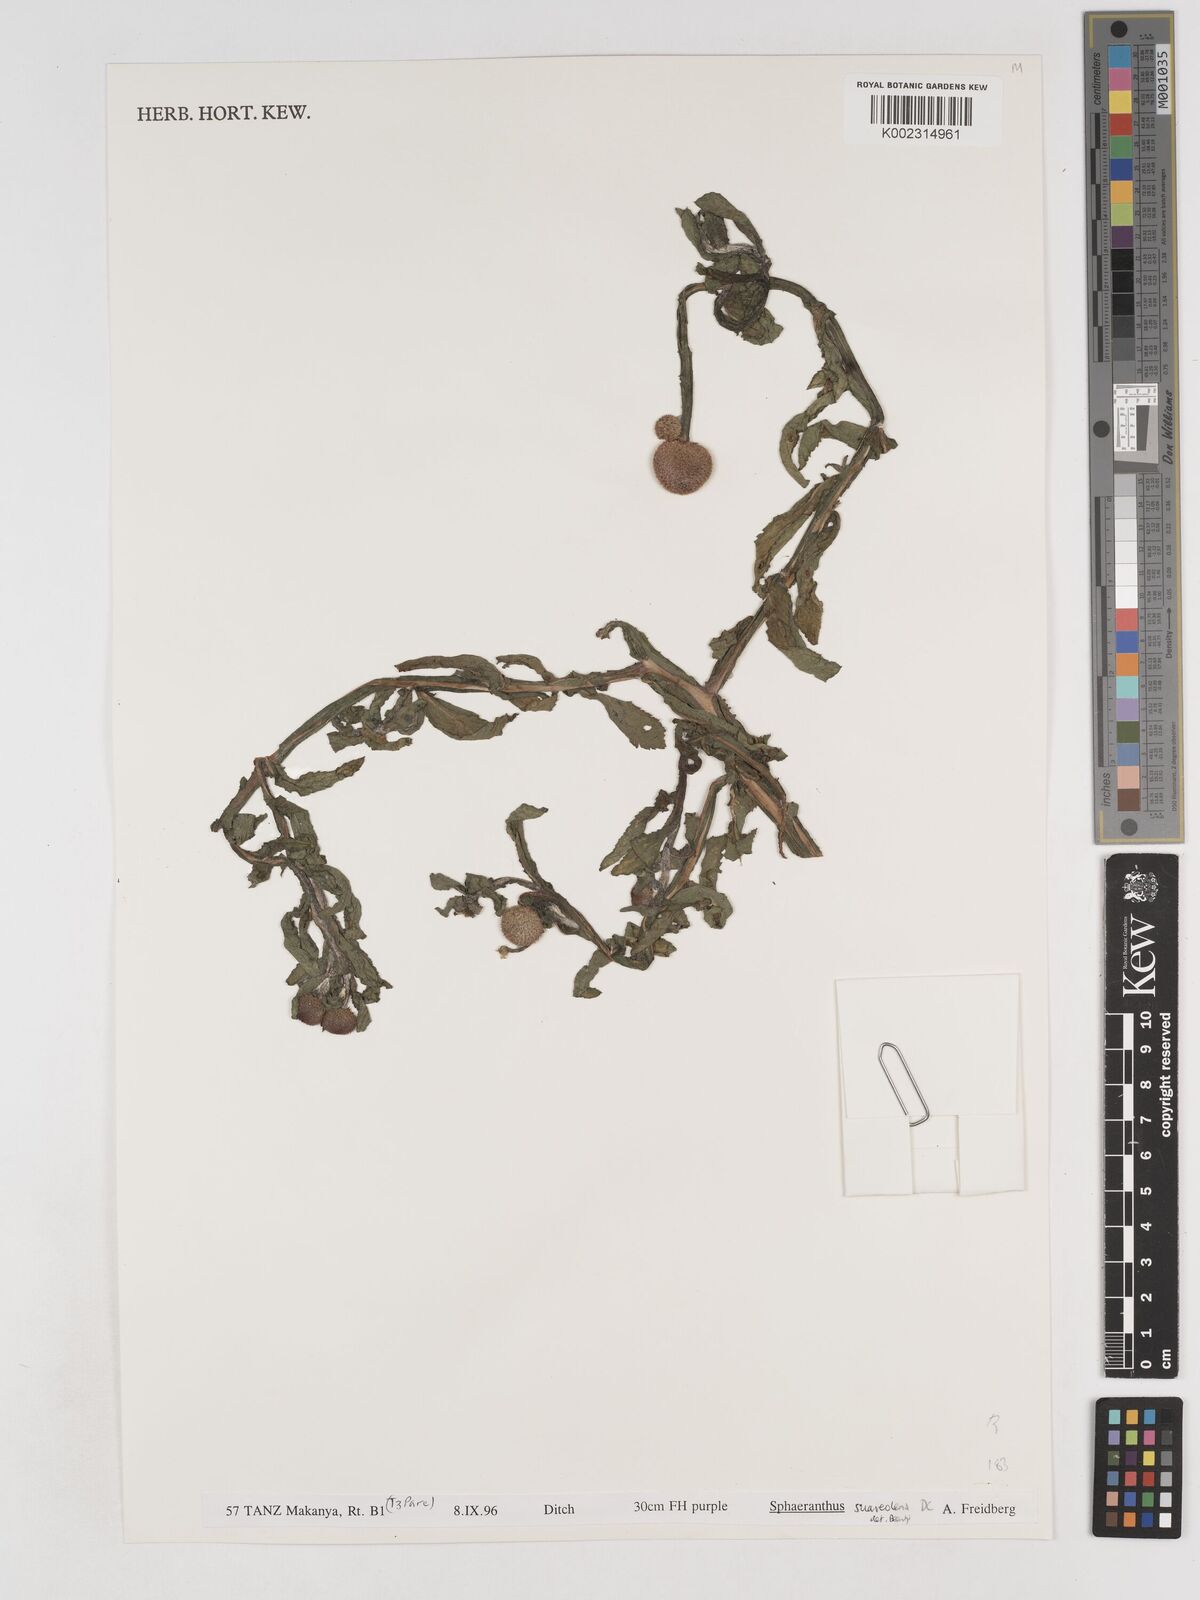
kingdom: Plantae
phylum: Tracheophyta
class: Magnoliopsida
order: Asterales
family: Asteraceae
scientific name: Asteraceae
